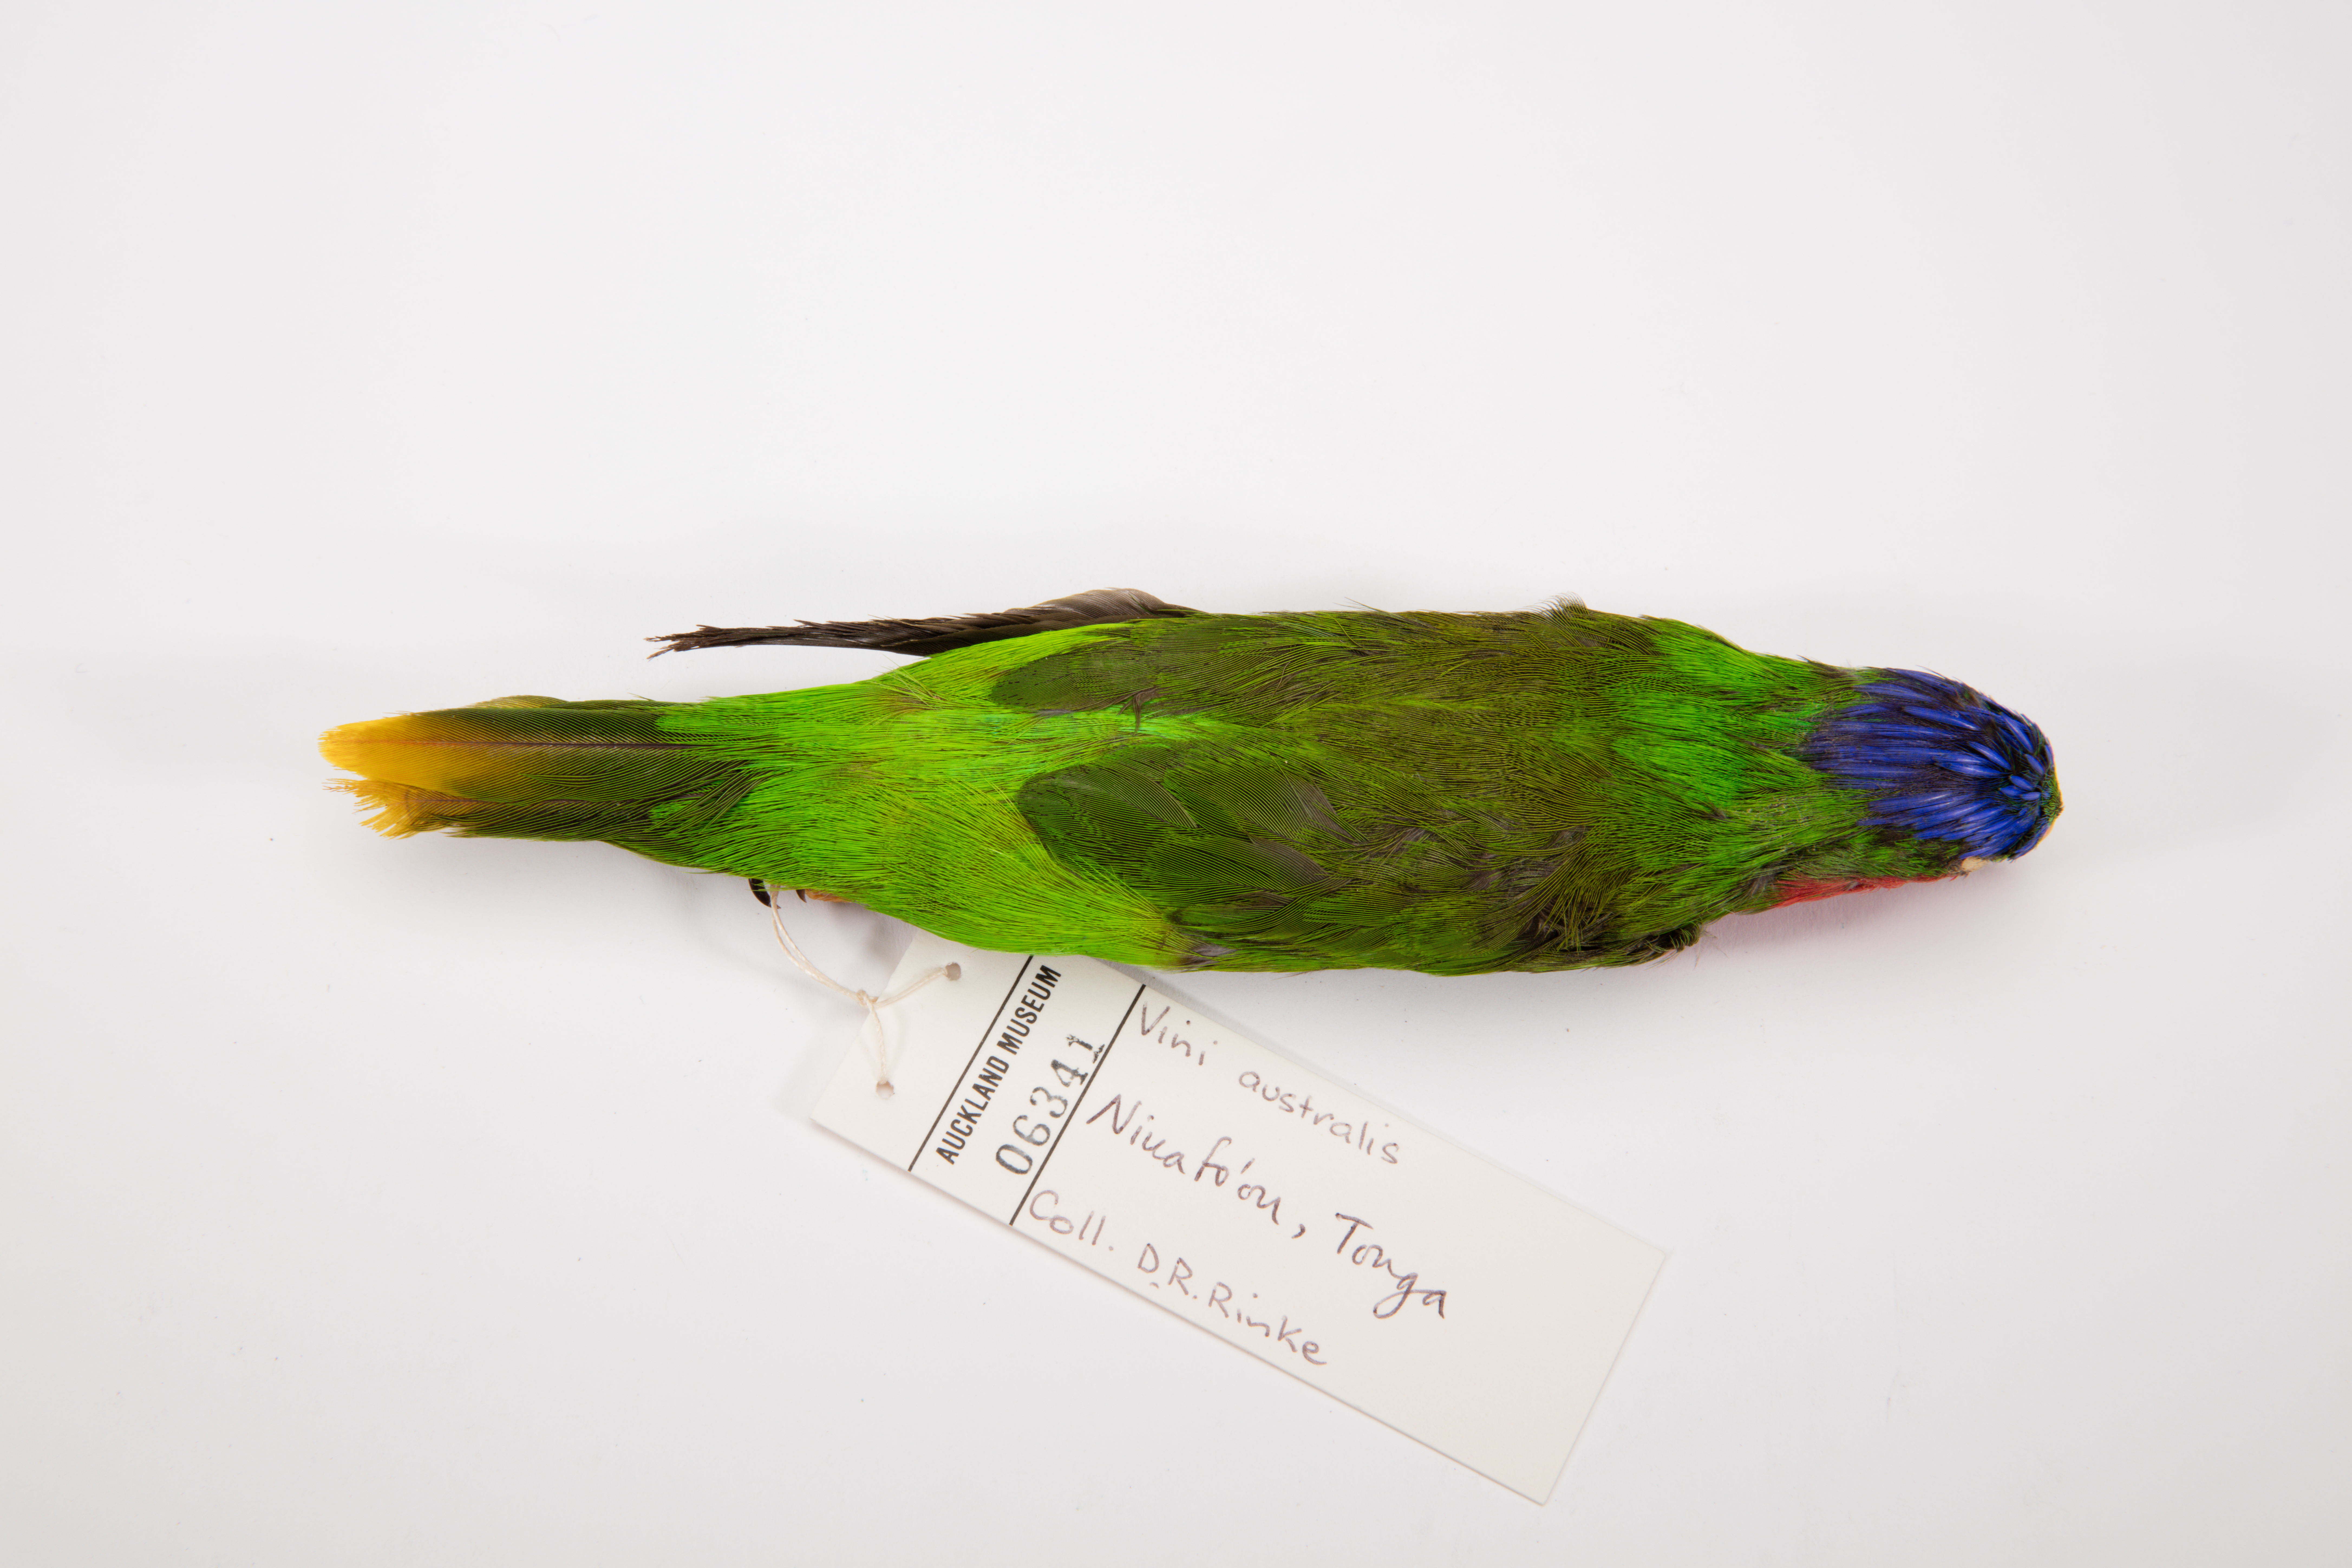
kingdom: Animalia
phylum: Chordata
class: Aves
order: Psittaciformes
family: Psittacidae
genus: Vini
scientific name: Vini australis
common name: Blue-crowned lorikeet
